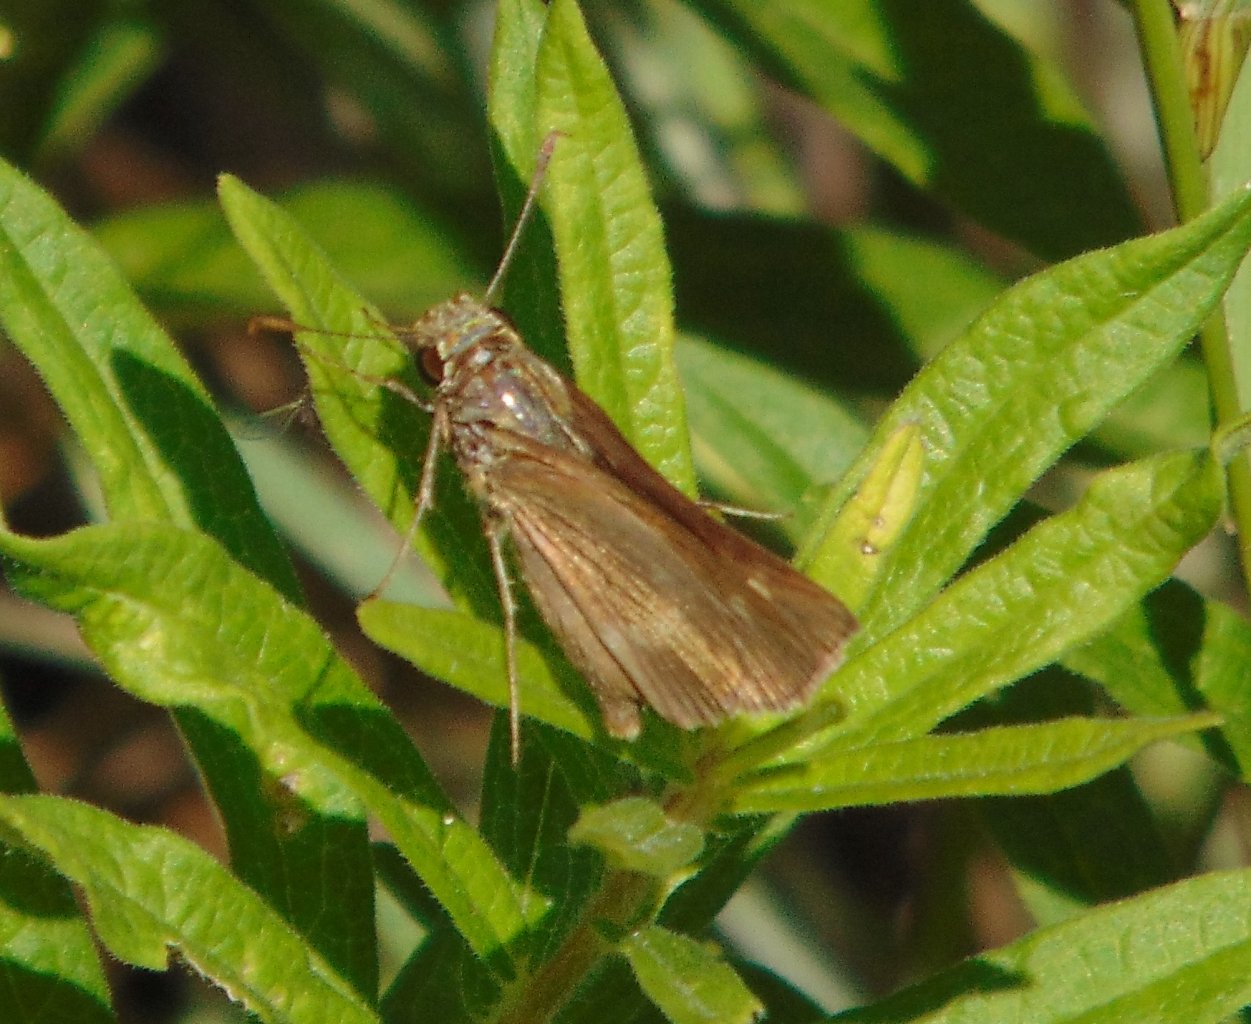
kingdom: Animalia
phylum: Arthropoda
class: Insecta
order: Lepidoptera
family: Hesperiidae
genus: Polites
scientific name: Polites egeremet
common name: Northern Broken-Dash
